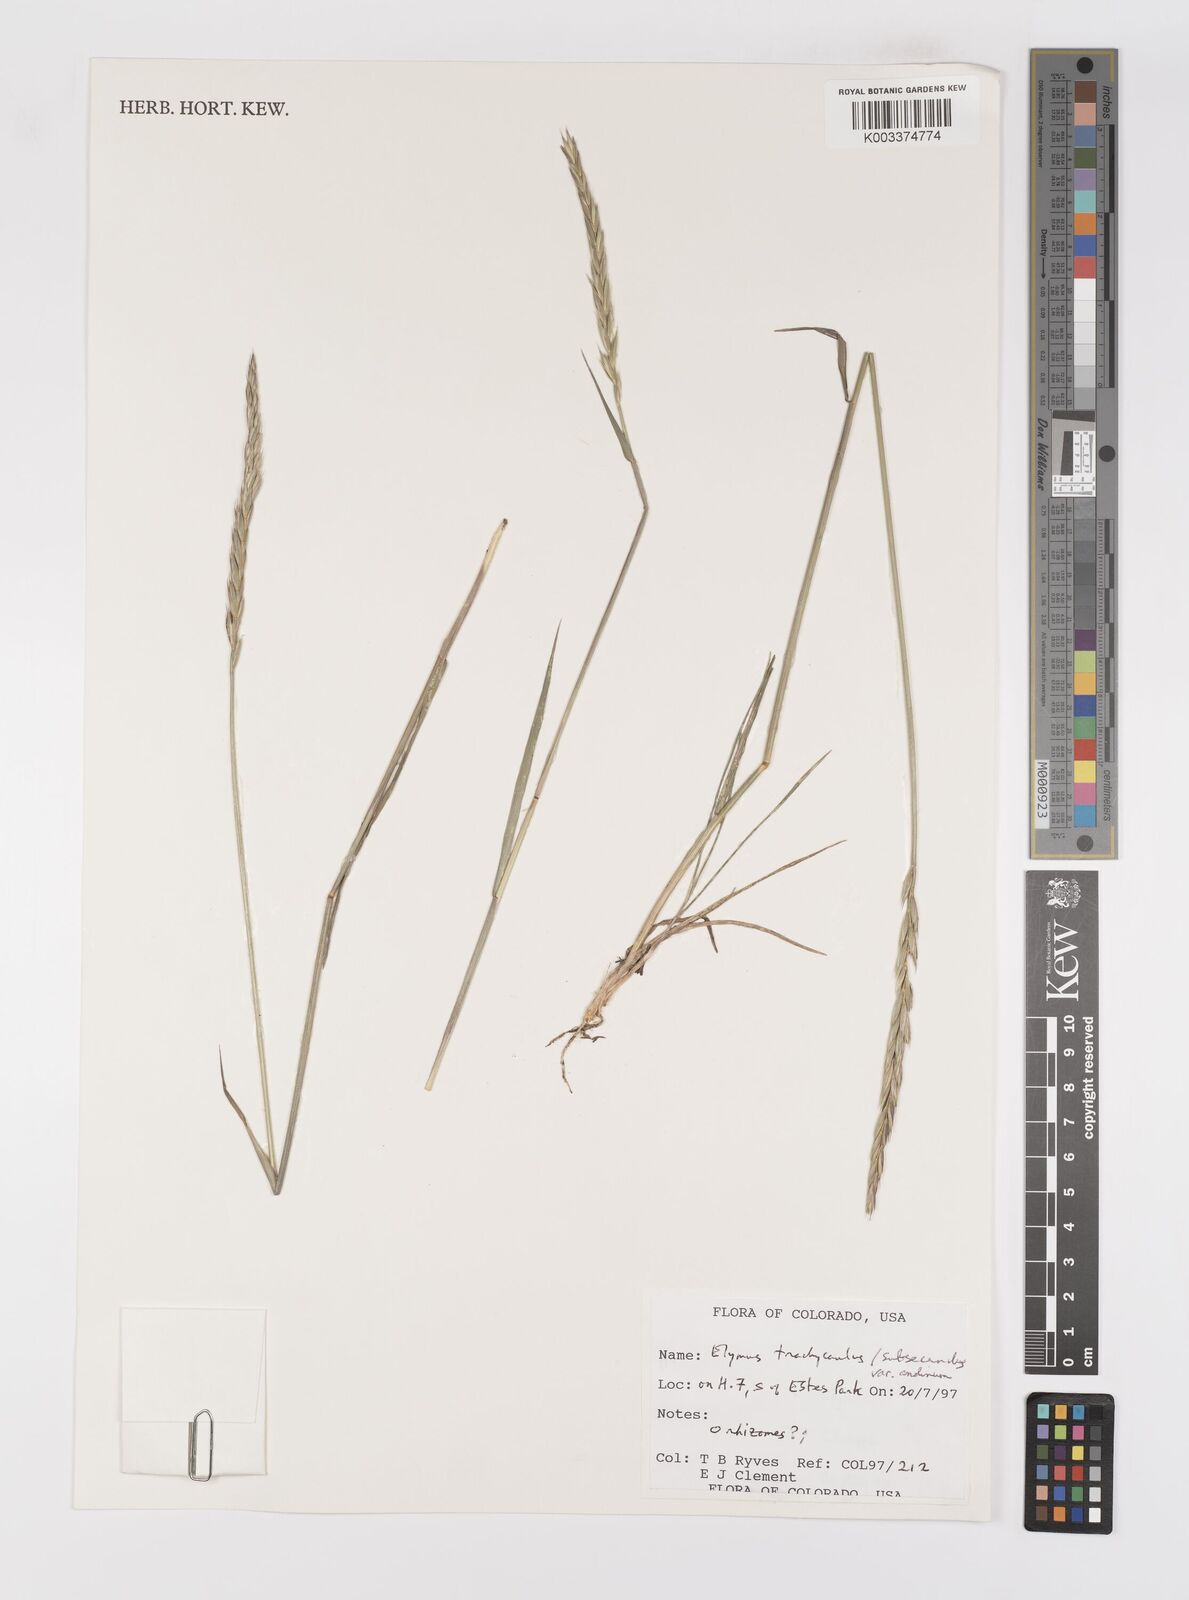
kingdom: Plantae
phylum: Tracheophyta
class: Liliopsida
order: Poales
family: Poaceae
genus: Elymus
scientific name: Elymus violaceus
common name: Arctic wheatgrass
